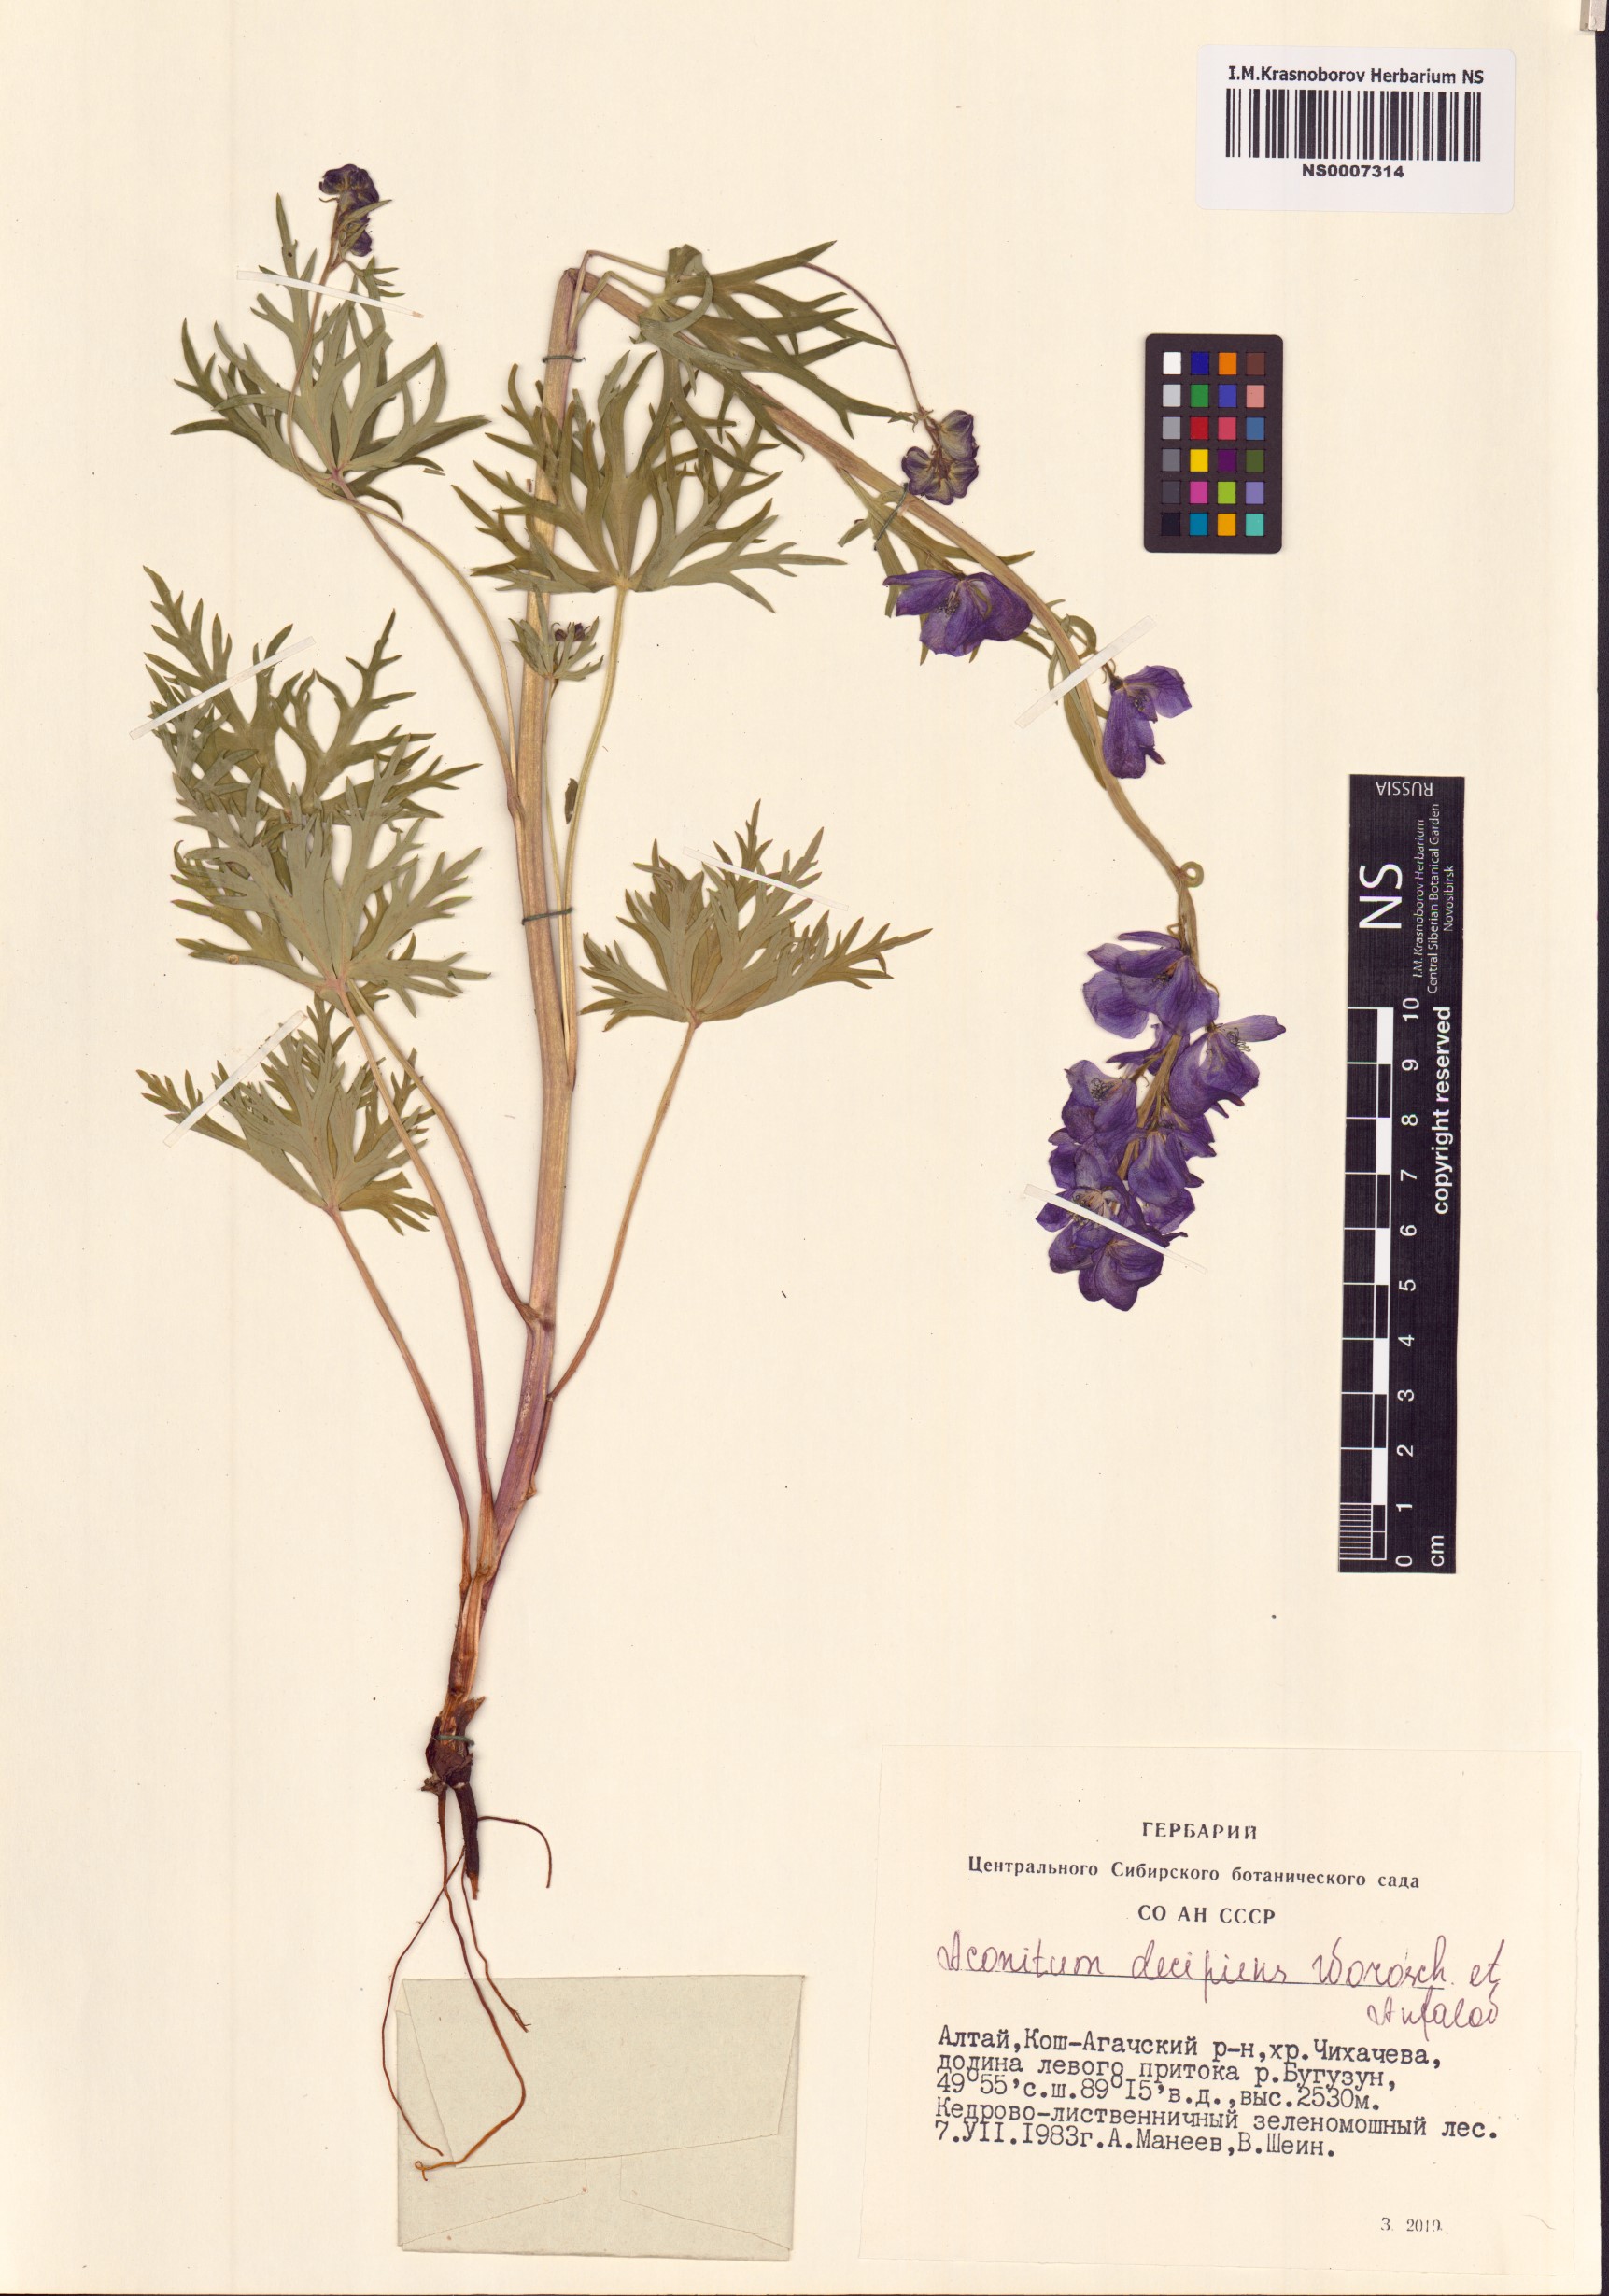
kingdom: Plantae
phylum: Tracheophyta
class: Magnoliopsida
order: Ranunculales
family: Ranunculaceae
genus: Aconitum
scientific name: Aconitum decipiens
